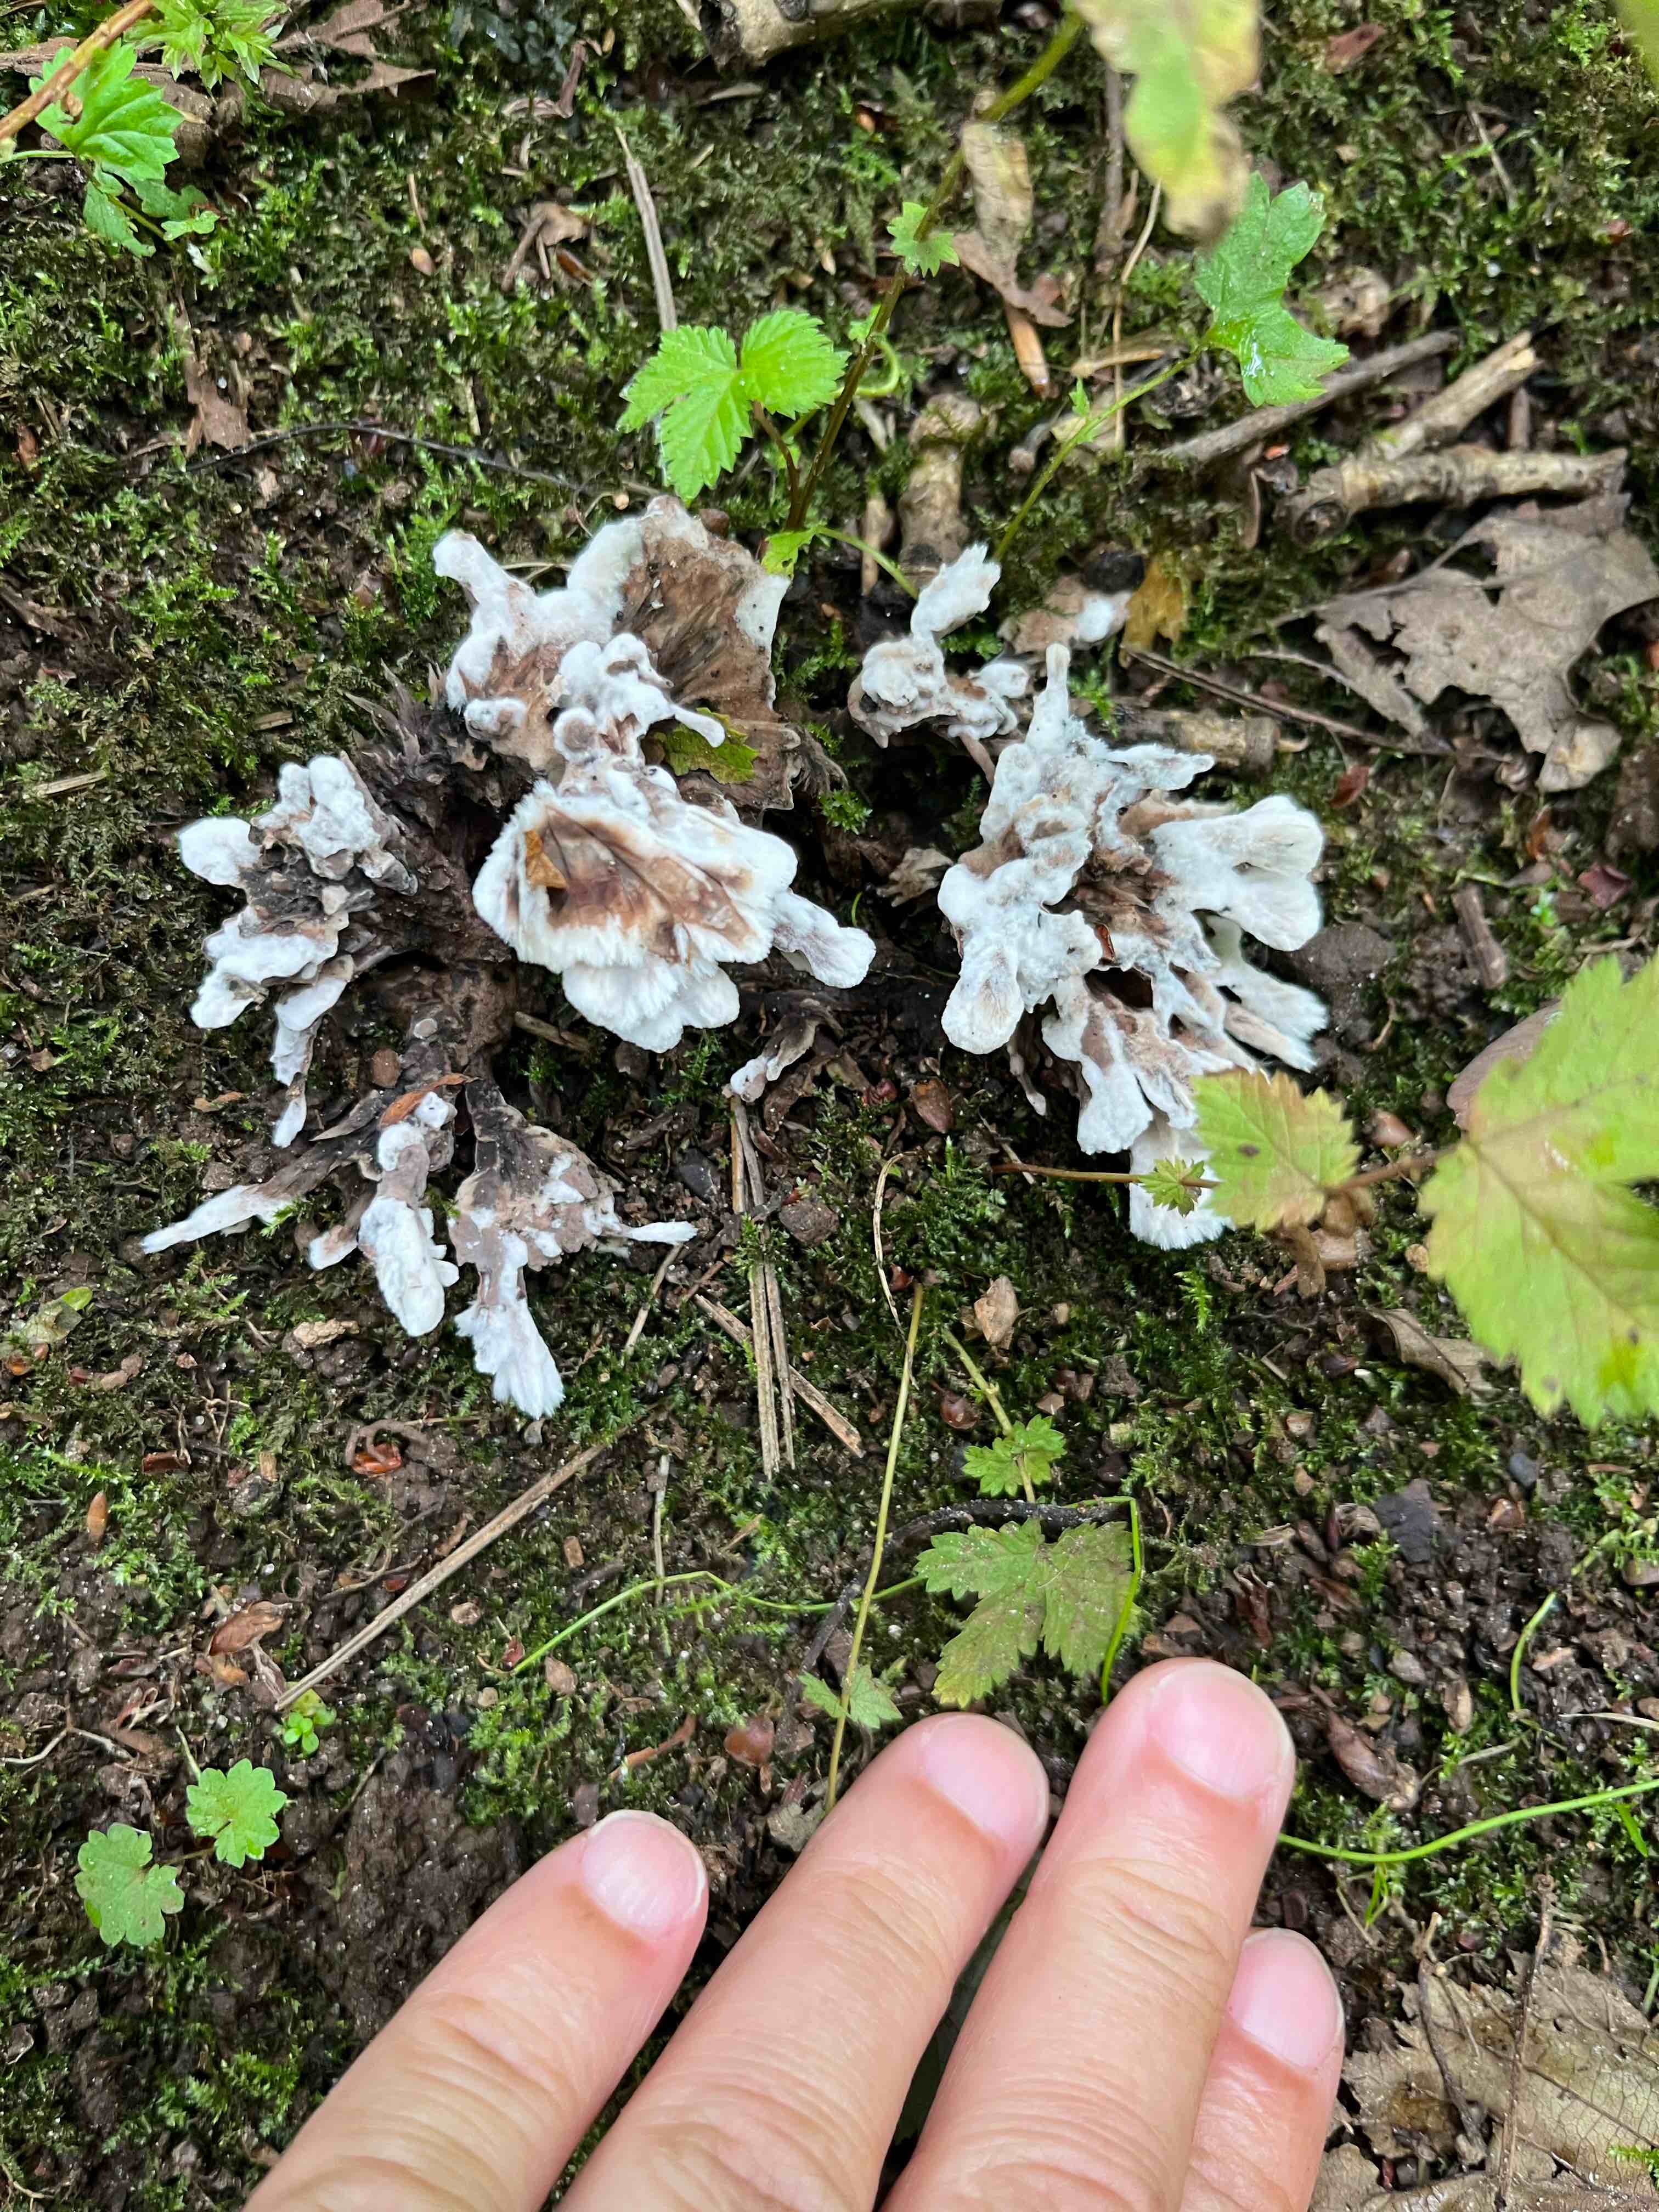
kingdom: Fungi
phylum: Basidiomycota
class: Agaricomycetes
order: Thelephorales
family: Thelephoraceae
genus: Thelephora
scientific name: Thelephora penicillata
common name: fladtrådt frynsesvamp
